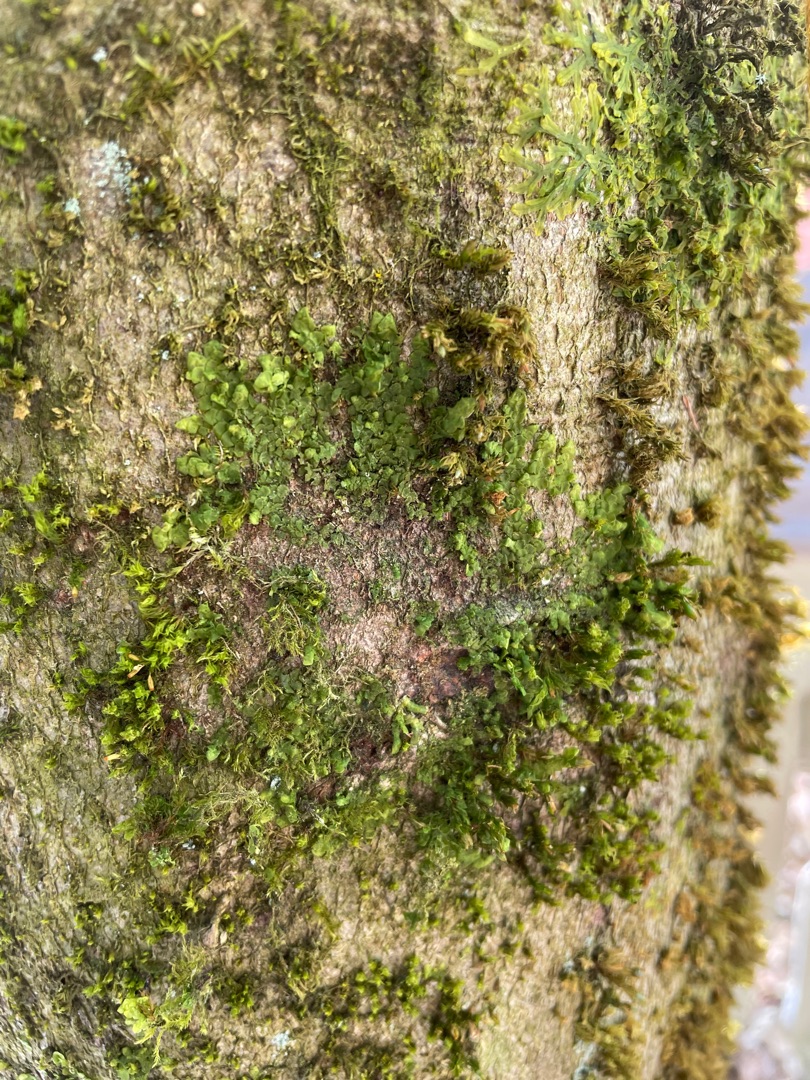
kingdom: Plantae
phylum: Marchantiophyta
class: Jungermanniopsida
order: Porellales
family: Radulaceae
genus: Radula
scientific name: Radula complanata
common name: Almindelig spartelmos
